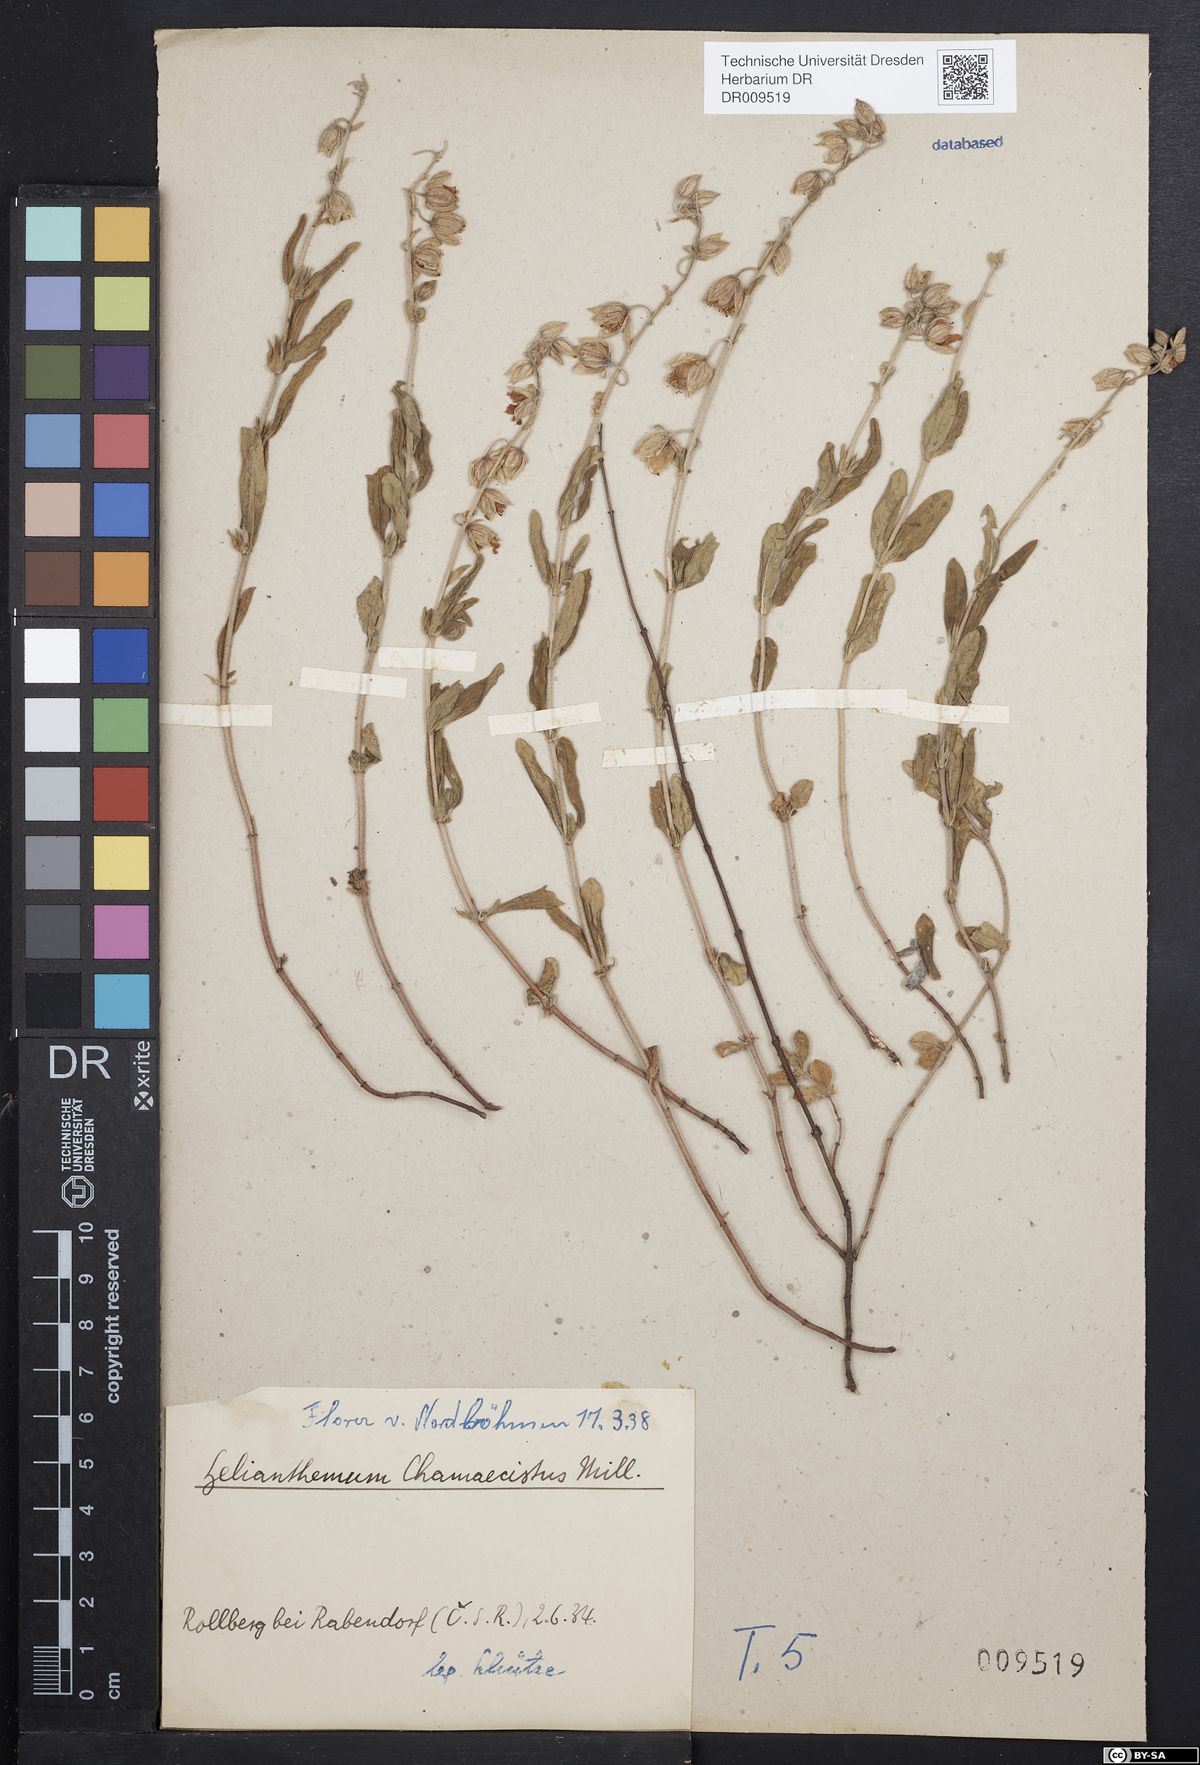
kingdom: Plantae
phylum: Tracheophyta
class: Magnoliopsida
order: Malvales
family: Cistaceae
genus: Helianthemum
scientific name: Helianthemum nummularium
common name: Common rock-rose
